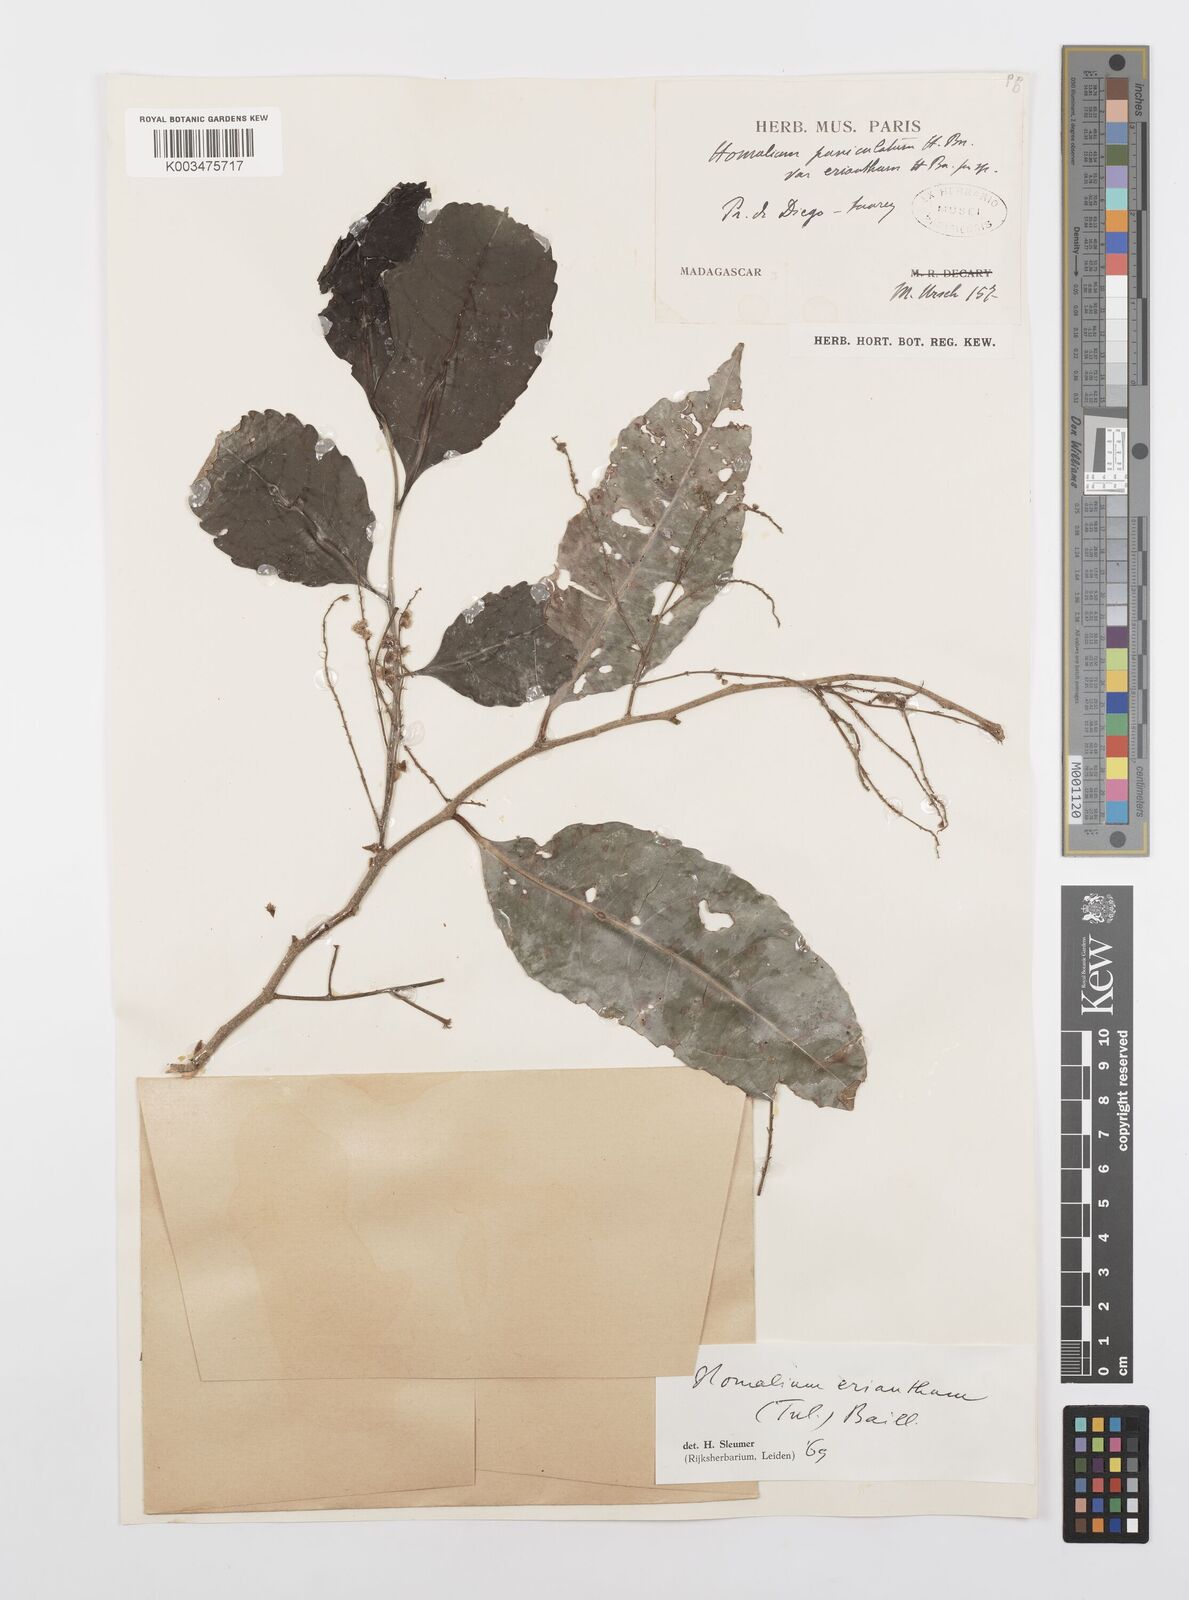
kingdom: Plantae
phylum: Tracheophyta
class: Magnoliopsida
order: Malpighiales
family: Salicaceae
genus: Homalium
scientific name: Homalium erianthum
